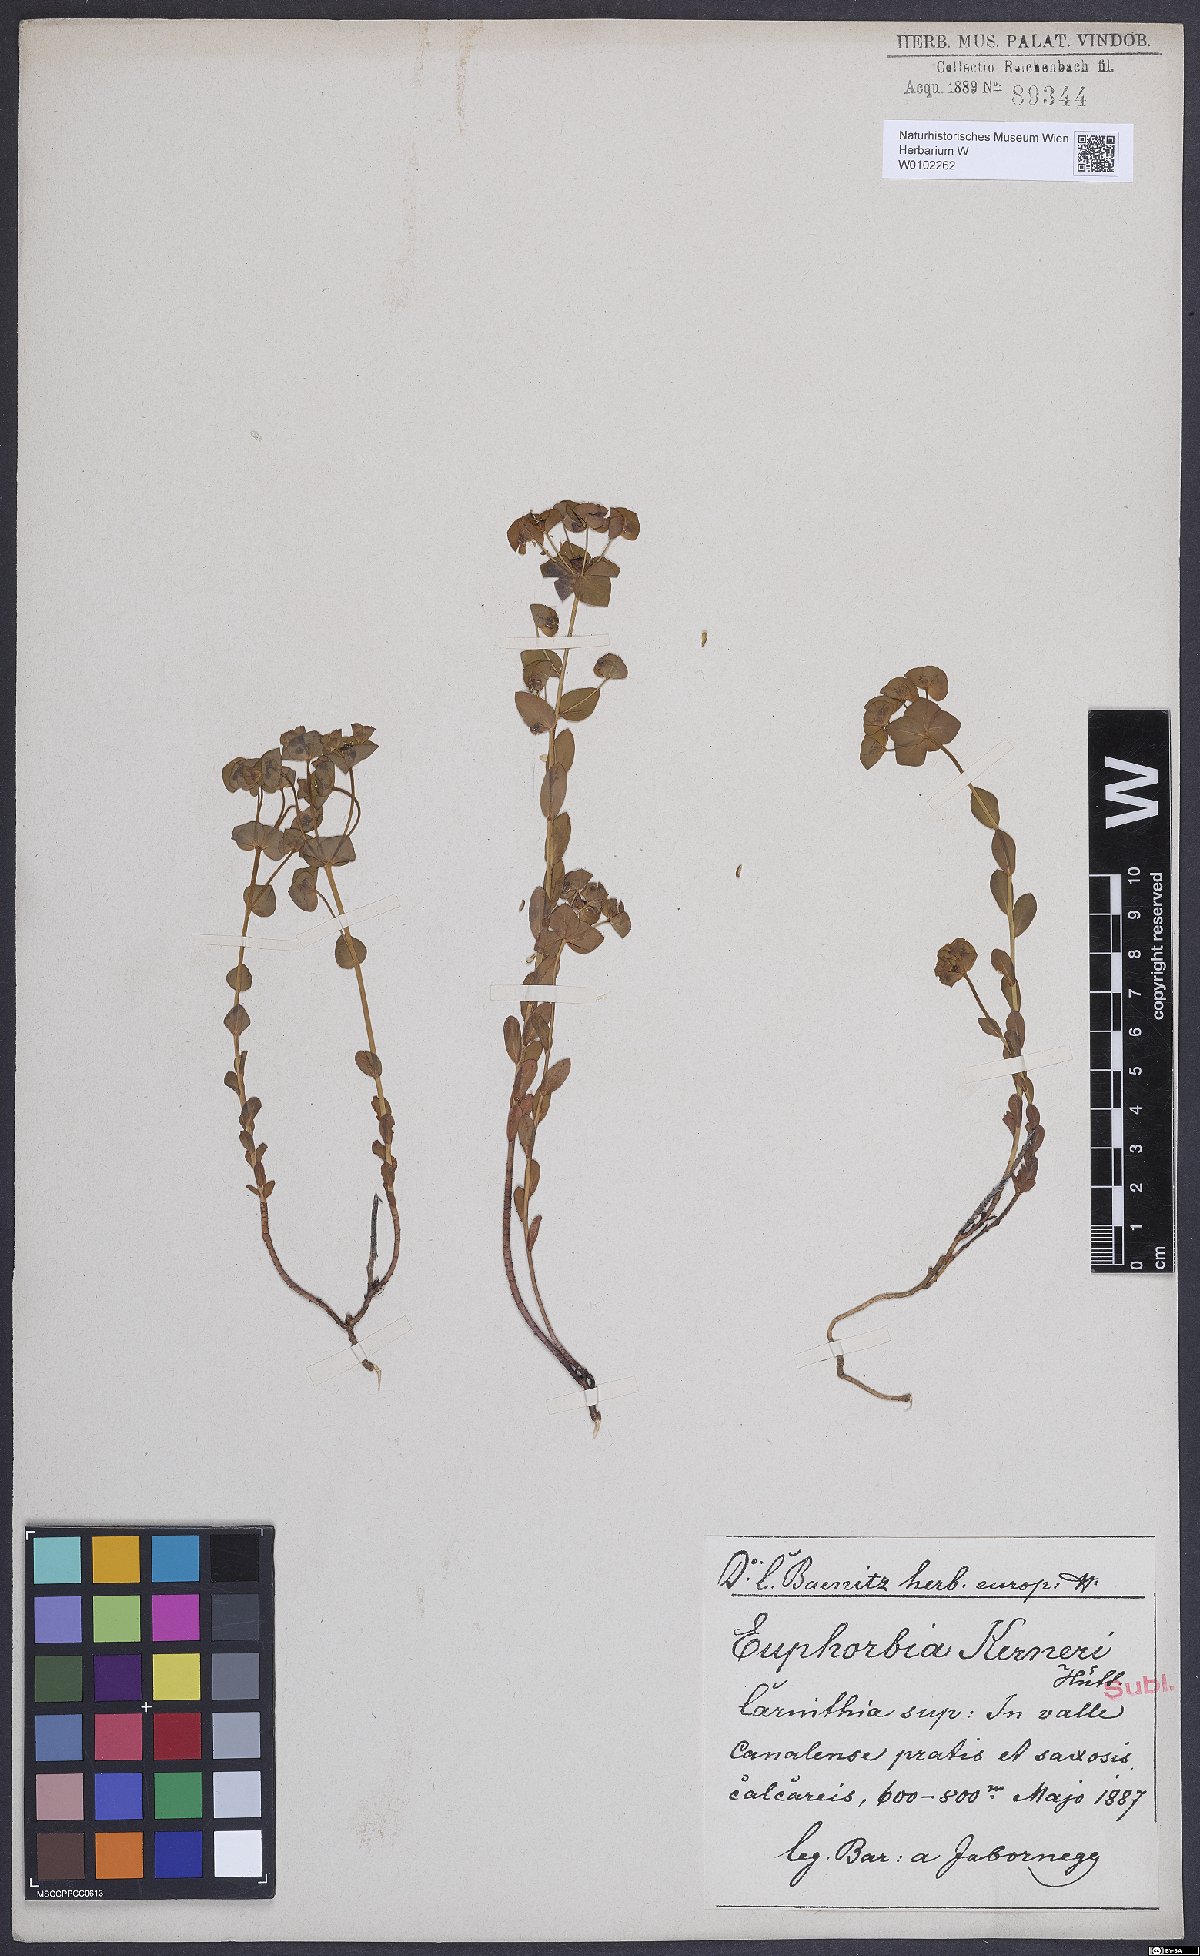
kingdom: Plantae
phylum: Tracheophyta
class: Magnoliopsida
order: Malpighiales
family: Euphorbiaceae
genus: Euphorbia
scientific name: Euphorbia kerneri
